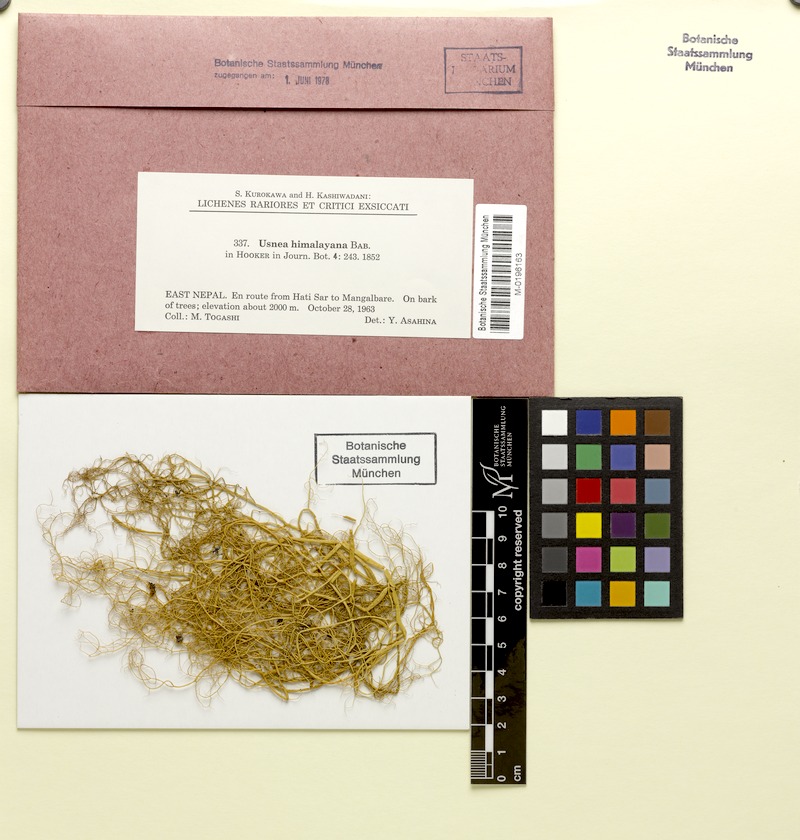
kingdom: Fungi
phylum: Ascomycota
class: Lecanoromycetes
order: Lecanorales
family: Parmeliaceae
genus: Usnea
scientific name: Usnea himalayana
